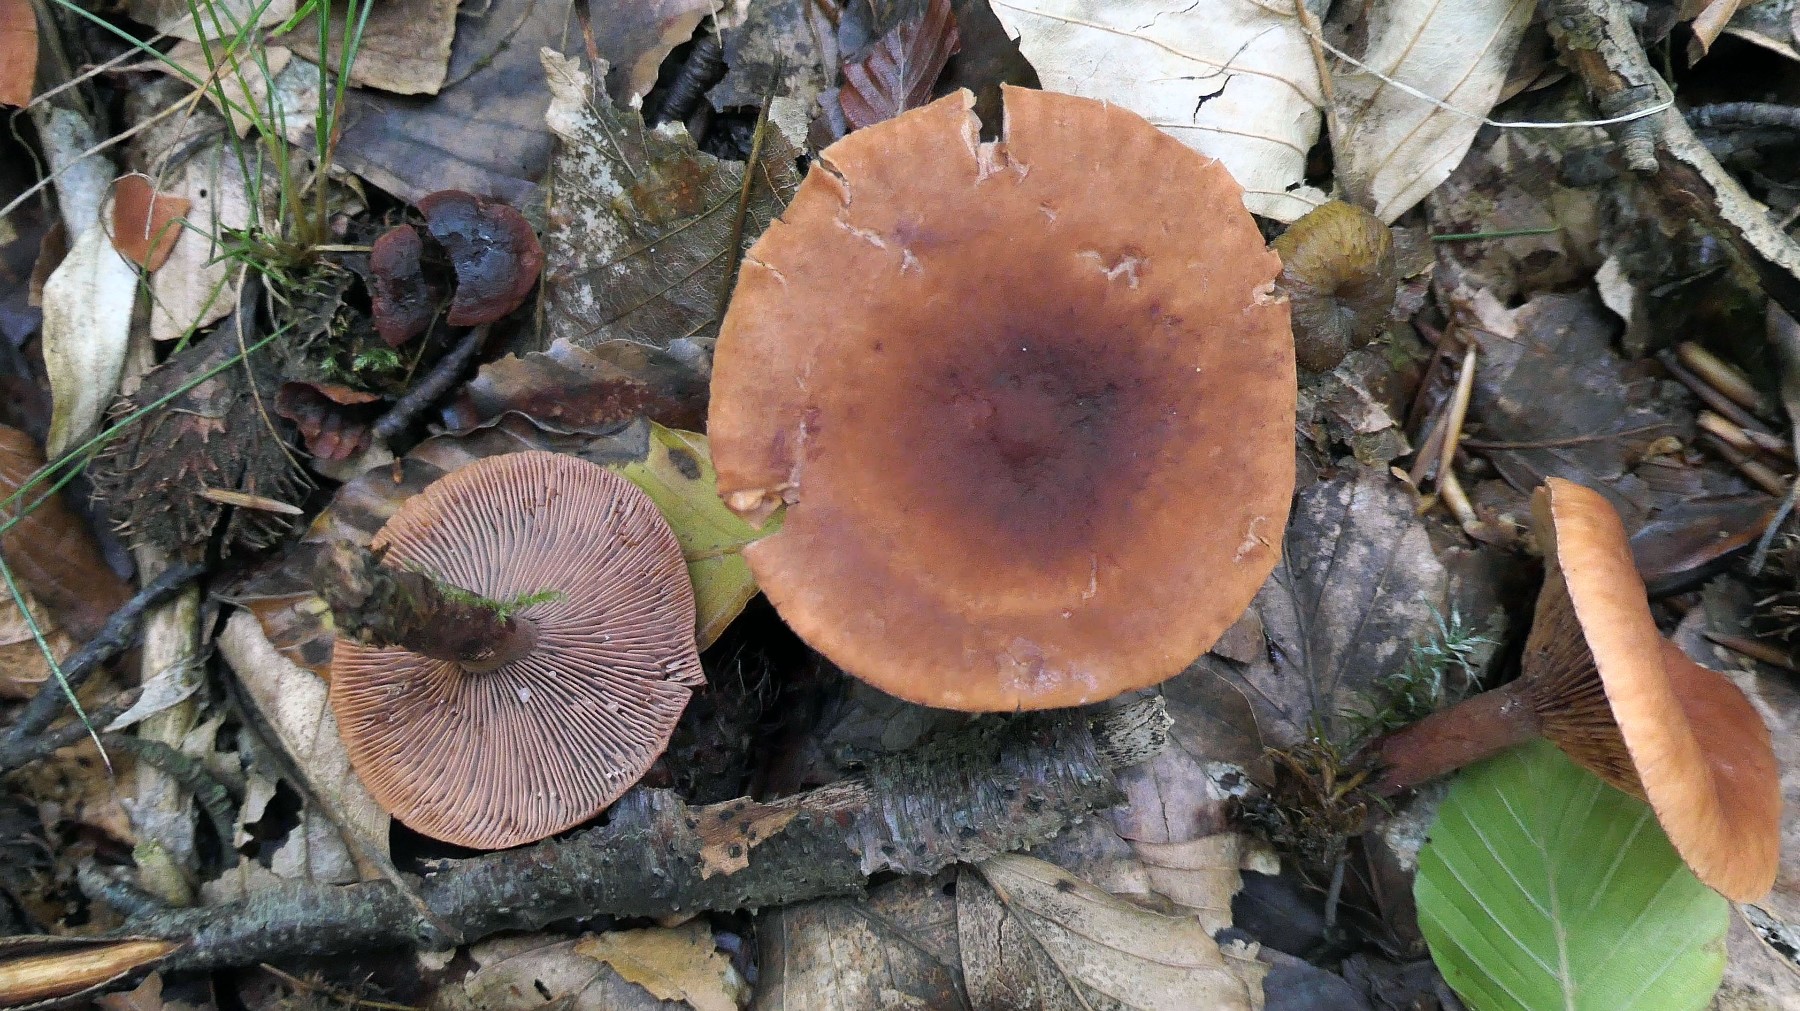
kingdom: Fungi
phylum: Basidiomycota
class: Agaricomycetes
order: Russulales
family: Russulaceae
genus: Lactarius
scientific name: Lactarius camphoratus
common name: kamfer-mælkehat
